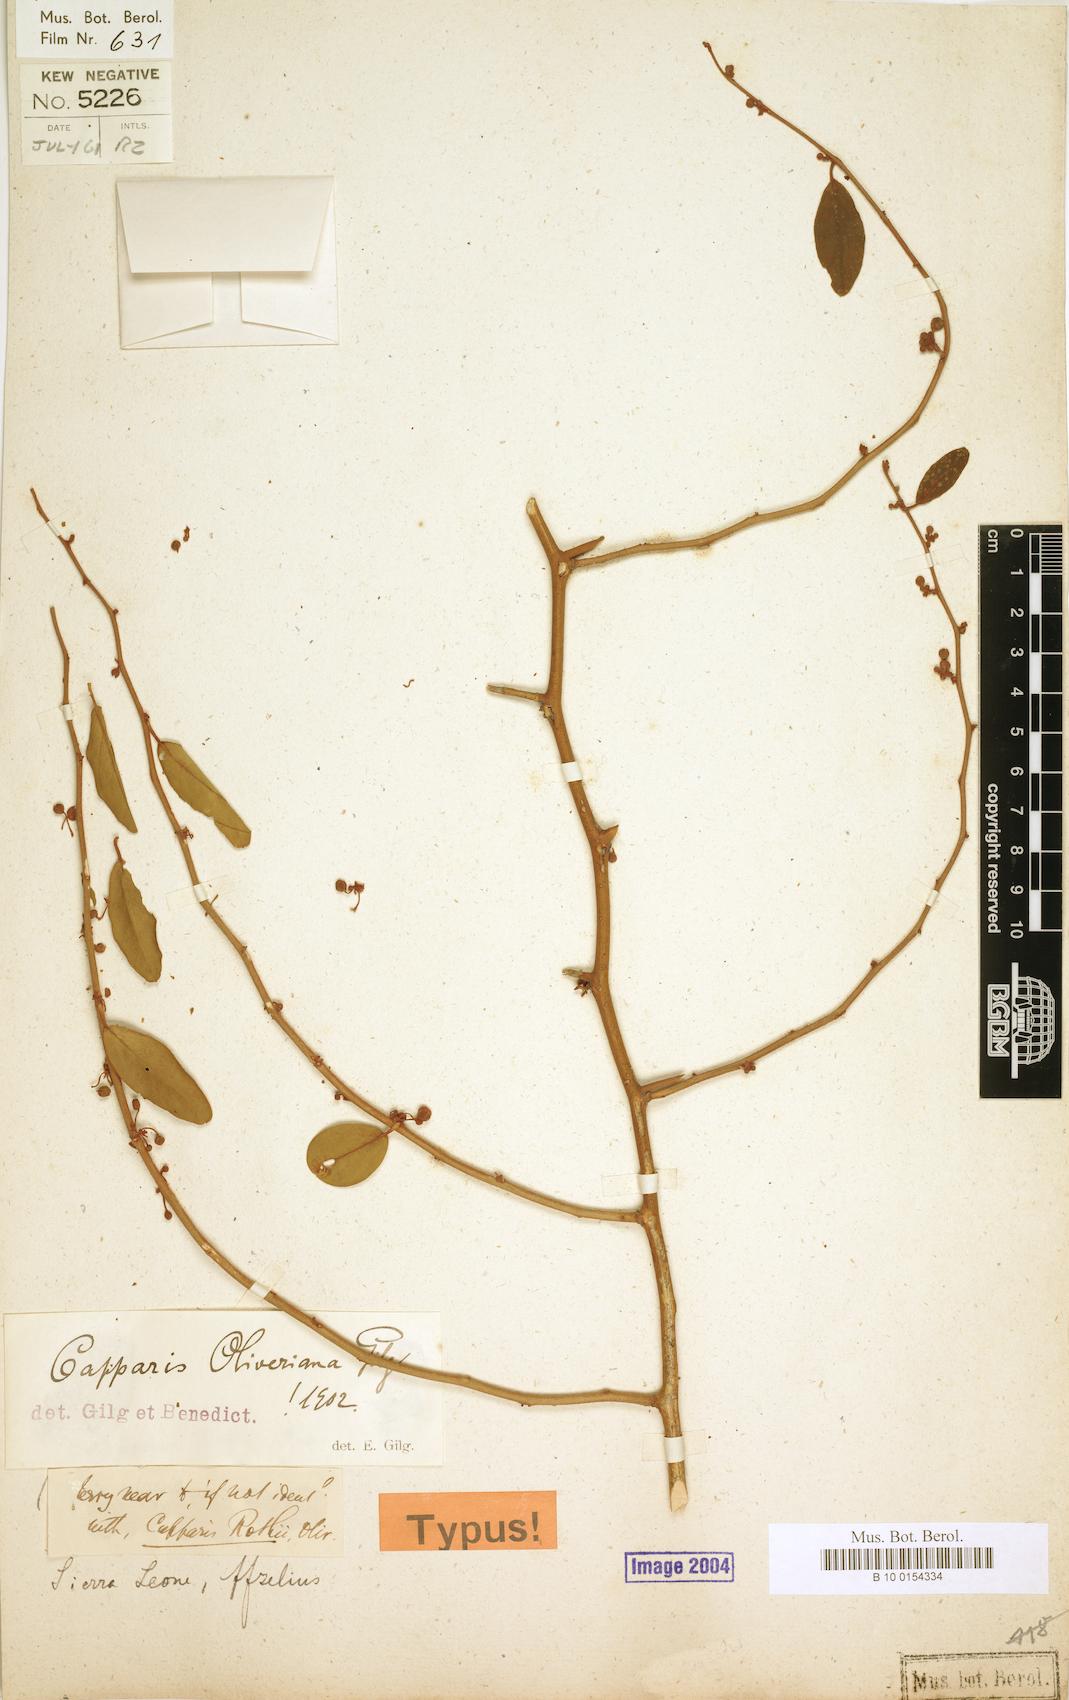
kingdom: Plantae
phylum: Tracheophyta
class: Magnoliopsida
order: Brassicales
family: Capparaceae
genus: Capparis
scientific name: Capparis fascicularis
